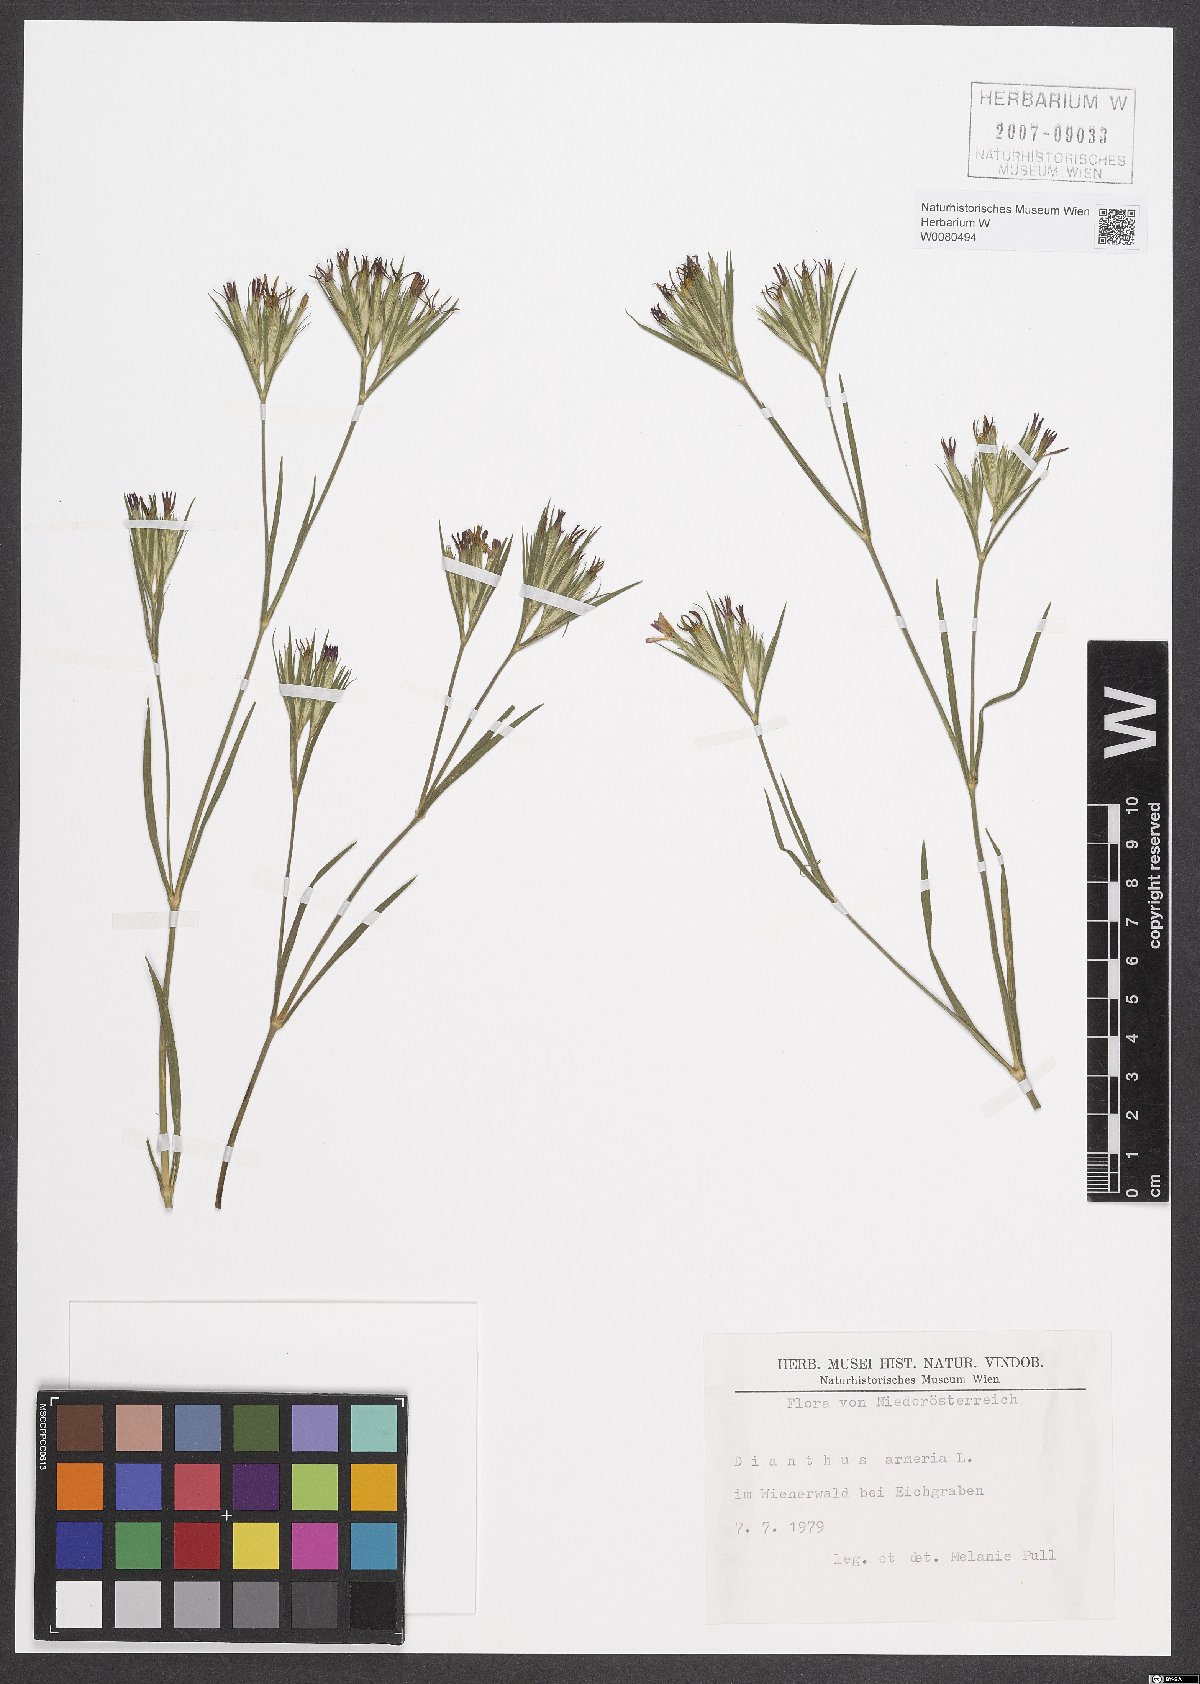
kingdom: Plantae
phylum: Tracheophyta
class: Magnoliopsida
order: Caryophyllales
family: Caryophyllaceae
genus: Dianthus
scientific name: Dianthus armeria
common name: Deptford pink
